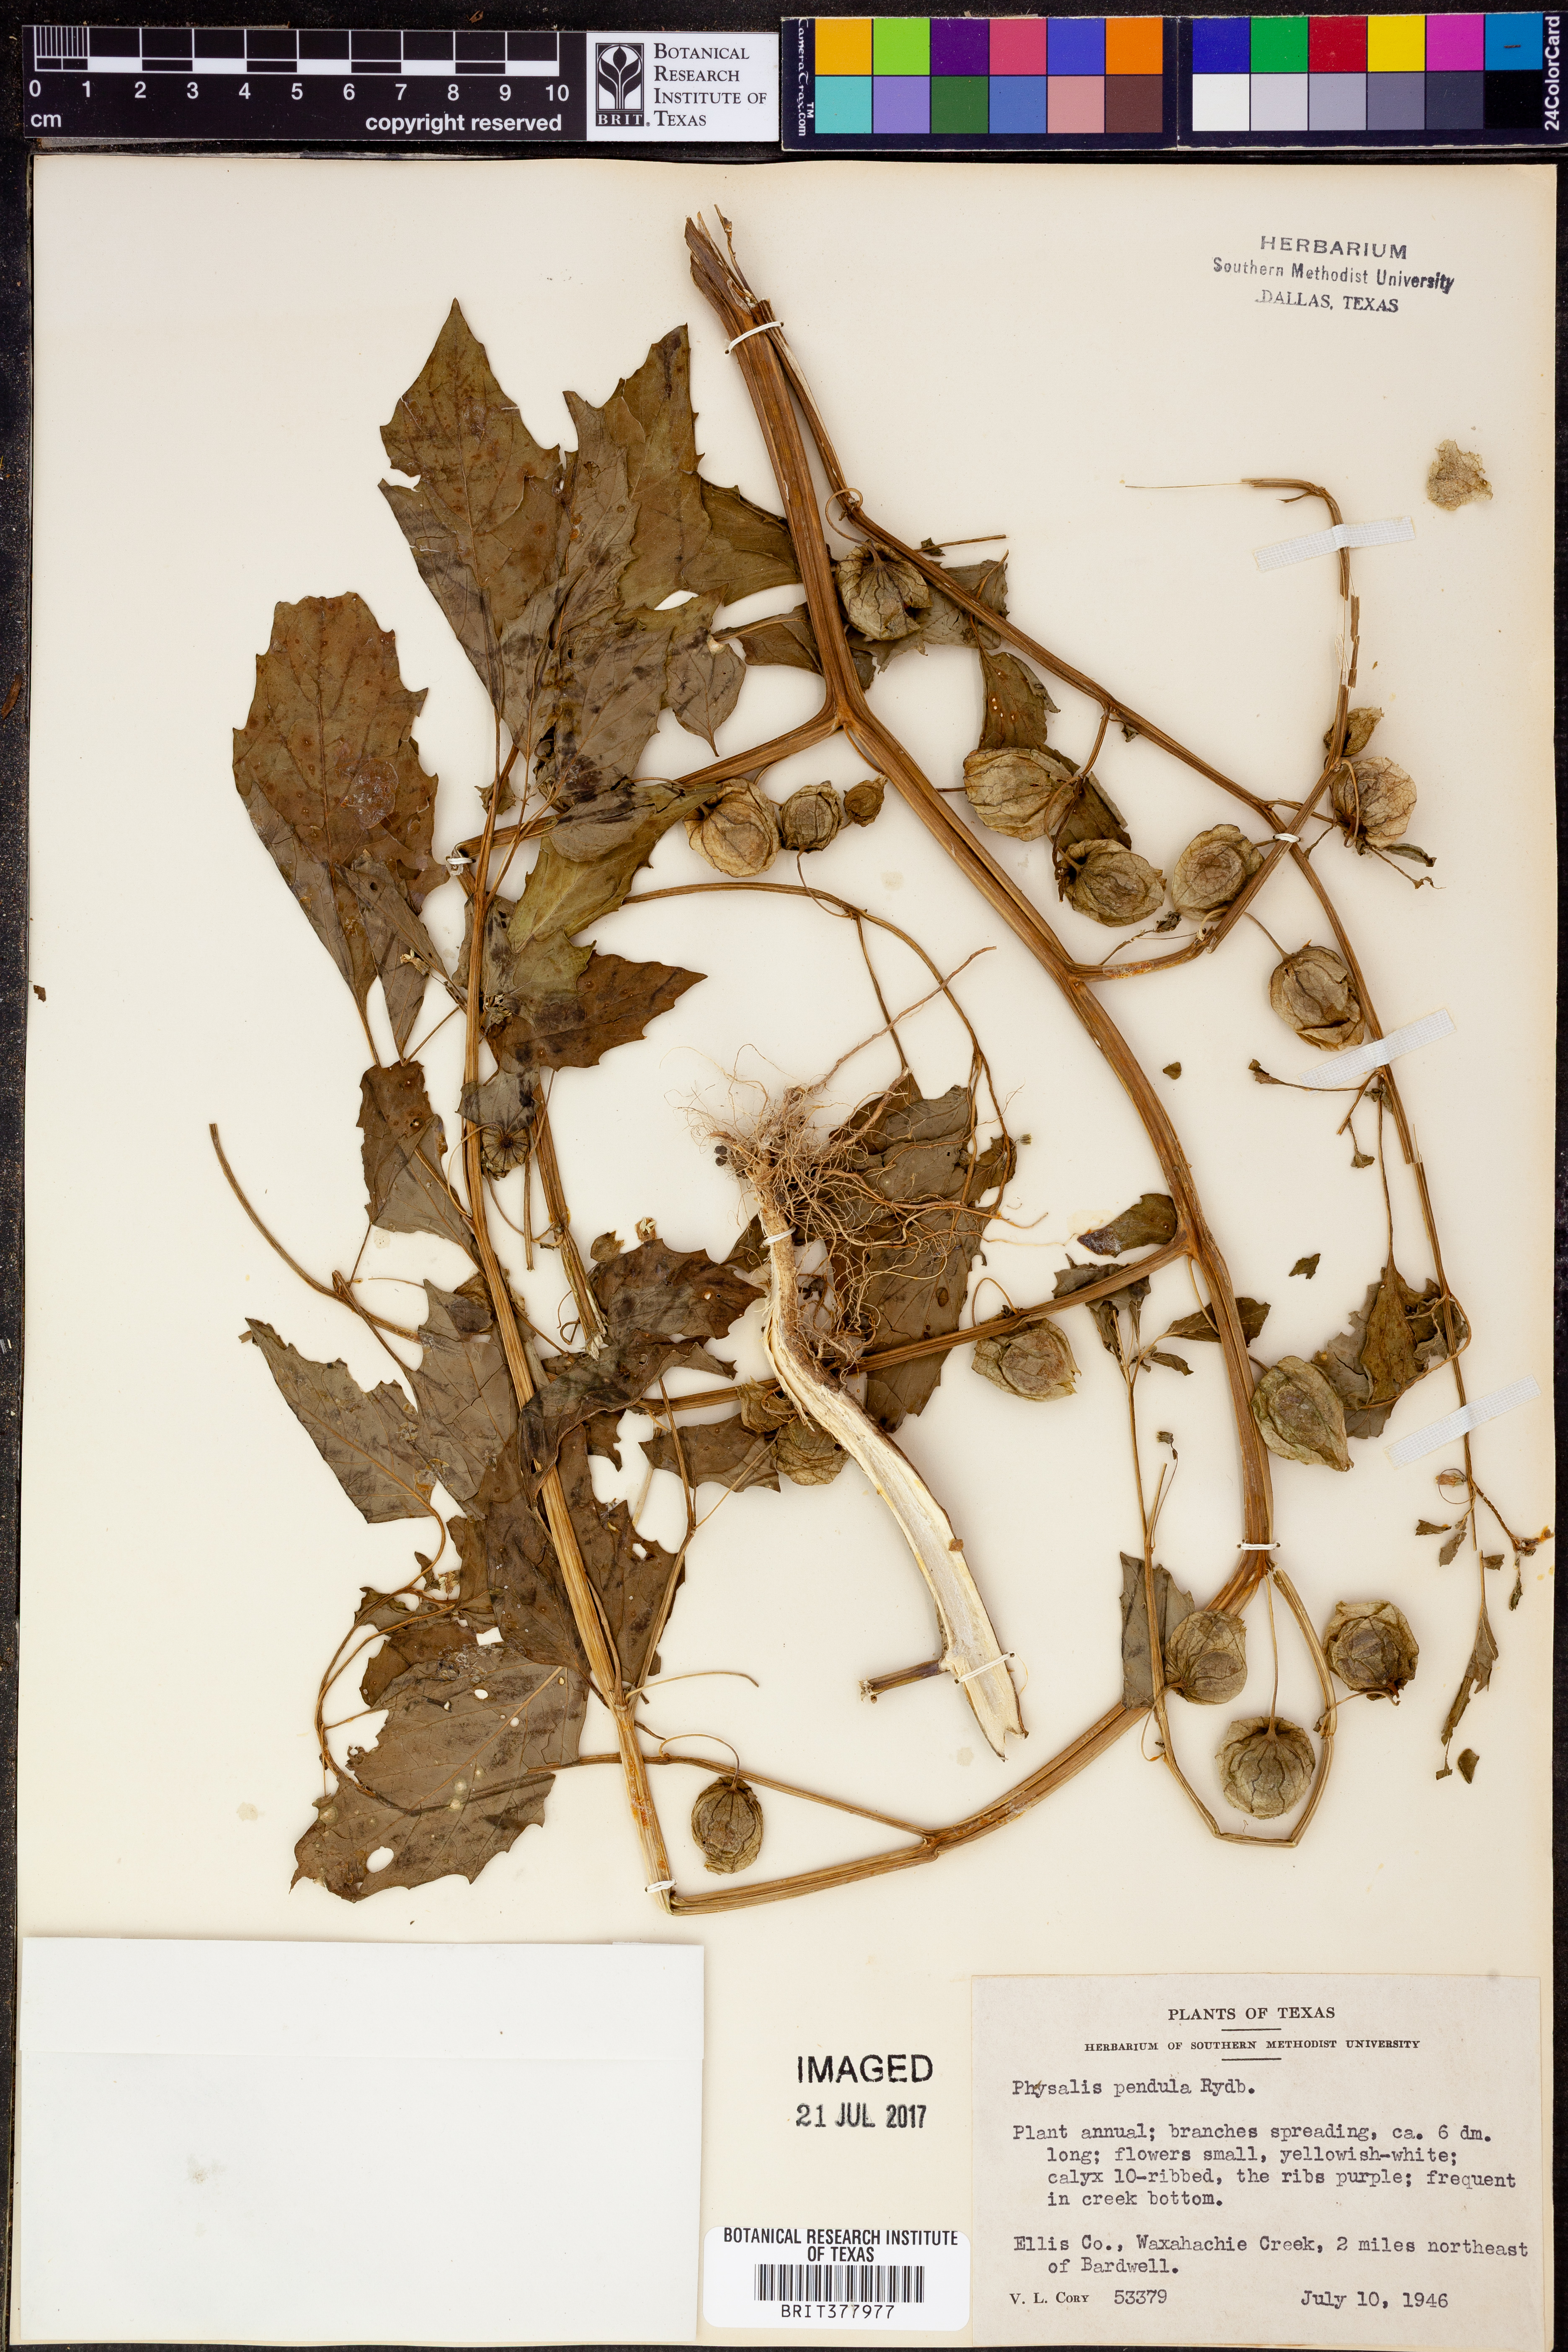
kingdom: Plantae
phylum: Tracheophyta
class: Magnoliopsida
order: Solanales
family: Solanaceae
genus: Physalis
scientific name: Physalis angulata
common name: Angular winter-cherry
